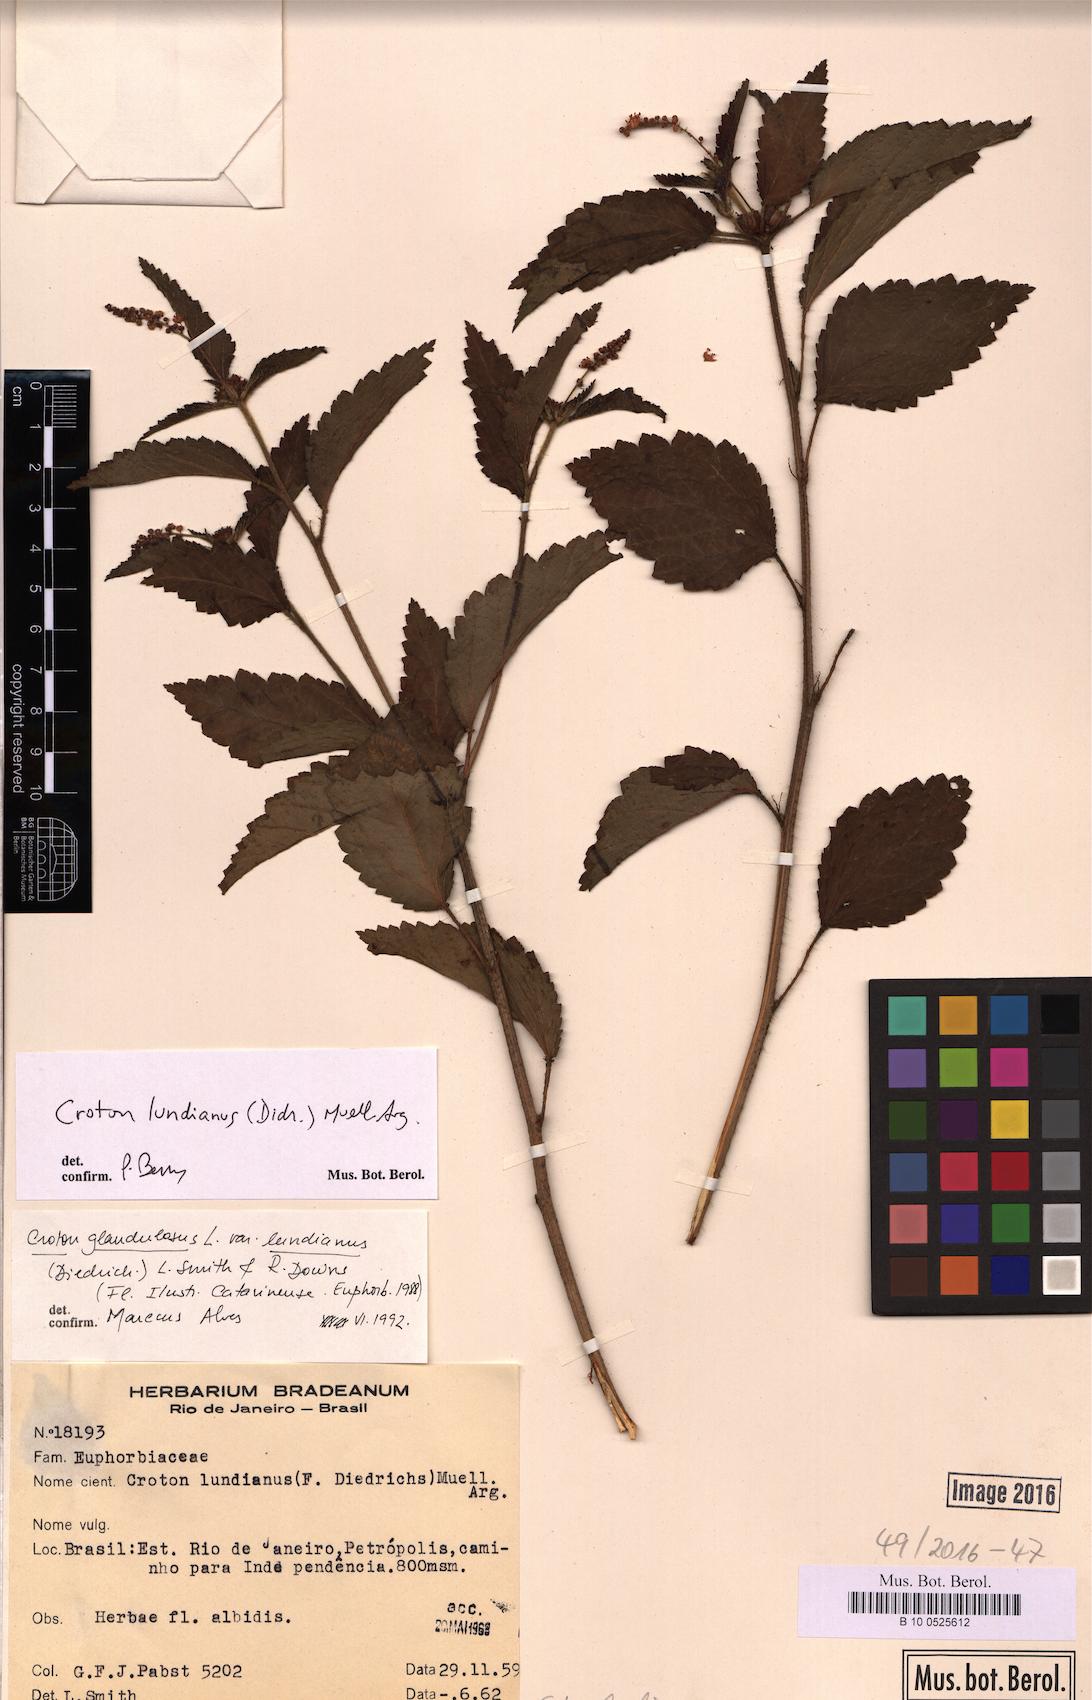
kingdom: Plantae
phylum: Tracheophyta
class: Magnoliopsida
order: Malpighiales
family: Euphorbiaceae
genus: Croton
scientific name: Croton lundianus
